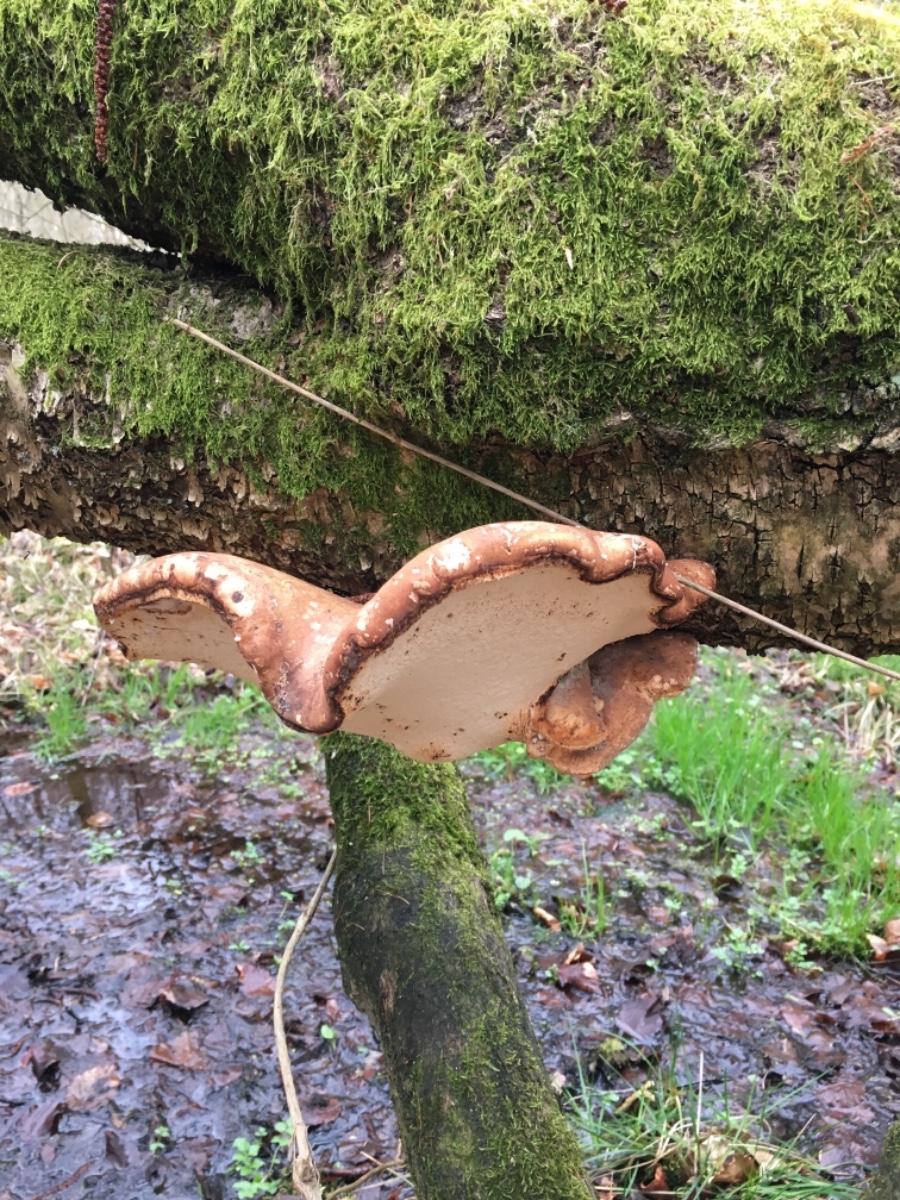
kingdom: Fungi
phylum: Basidiomycota
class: Agaricomycetes
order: Polyporales
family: Fomitopsidaceae
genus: Fomitopsis
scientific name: Fomitopsis betulina
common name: birkeporesvamp
